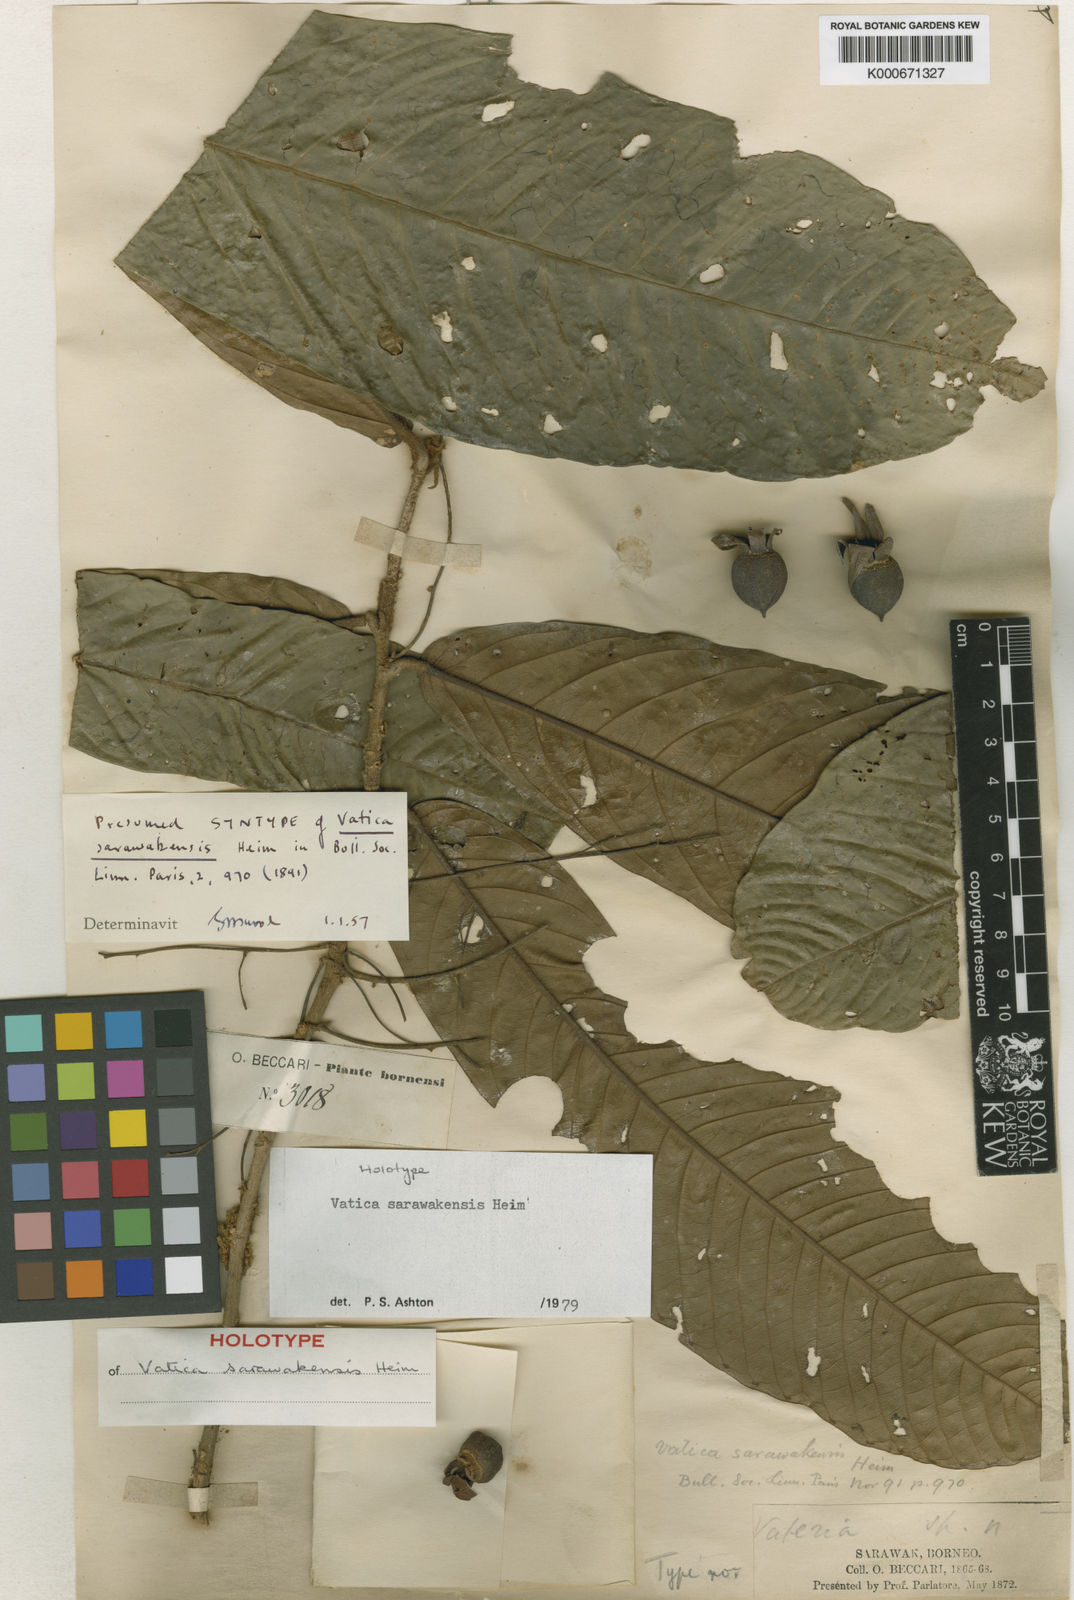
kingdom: Plantae
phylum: Tracheophyta
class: Magnoliopsida
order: Malvales
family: Dipterocarpaceae
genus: Vatica
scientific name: Vatica sarawakensis
